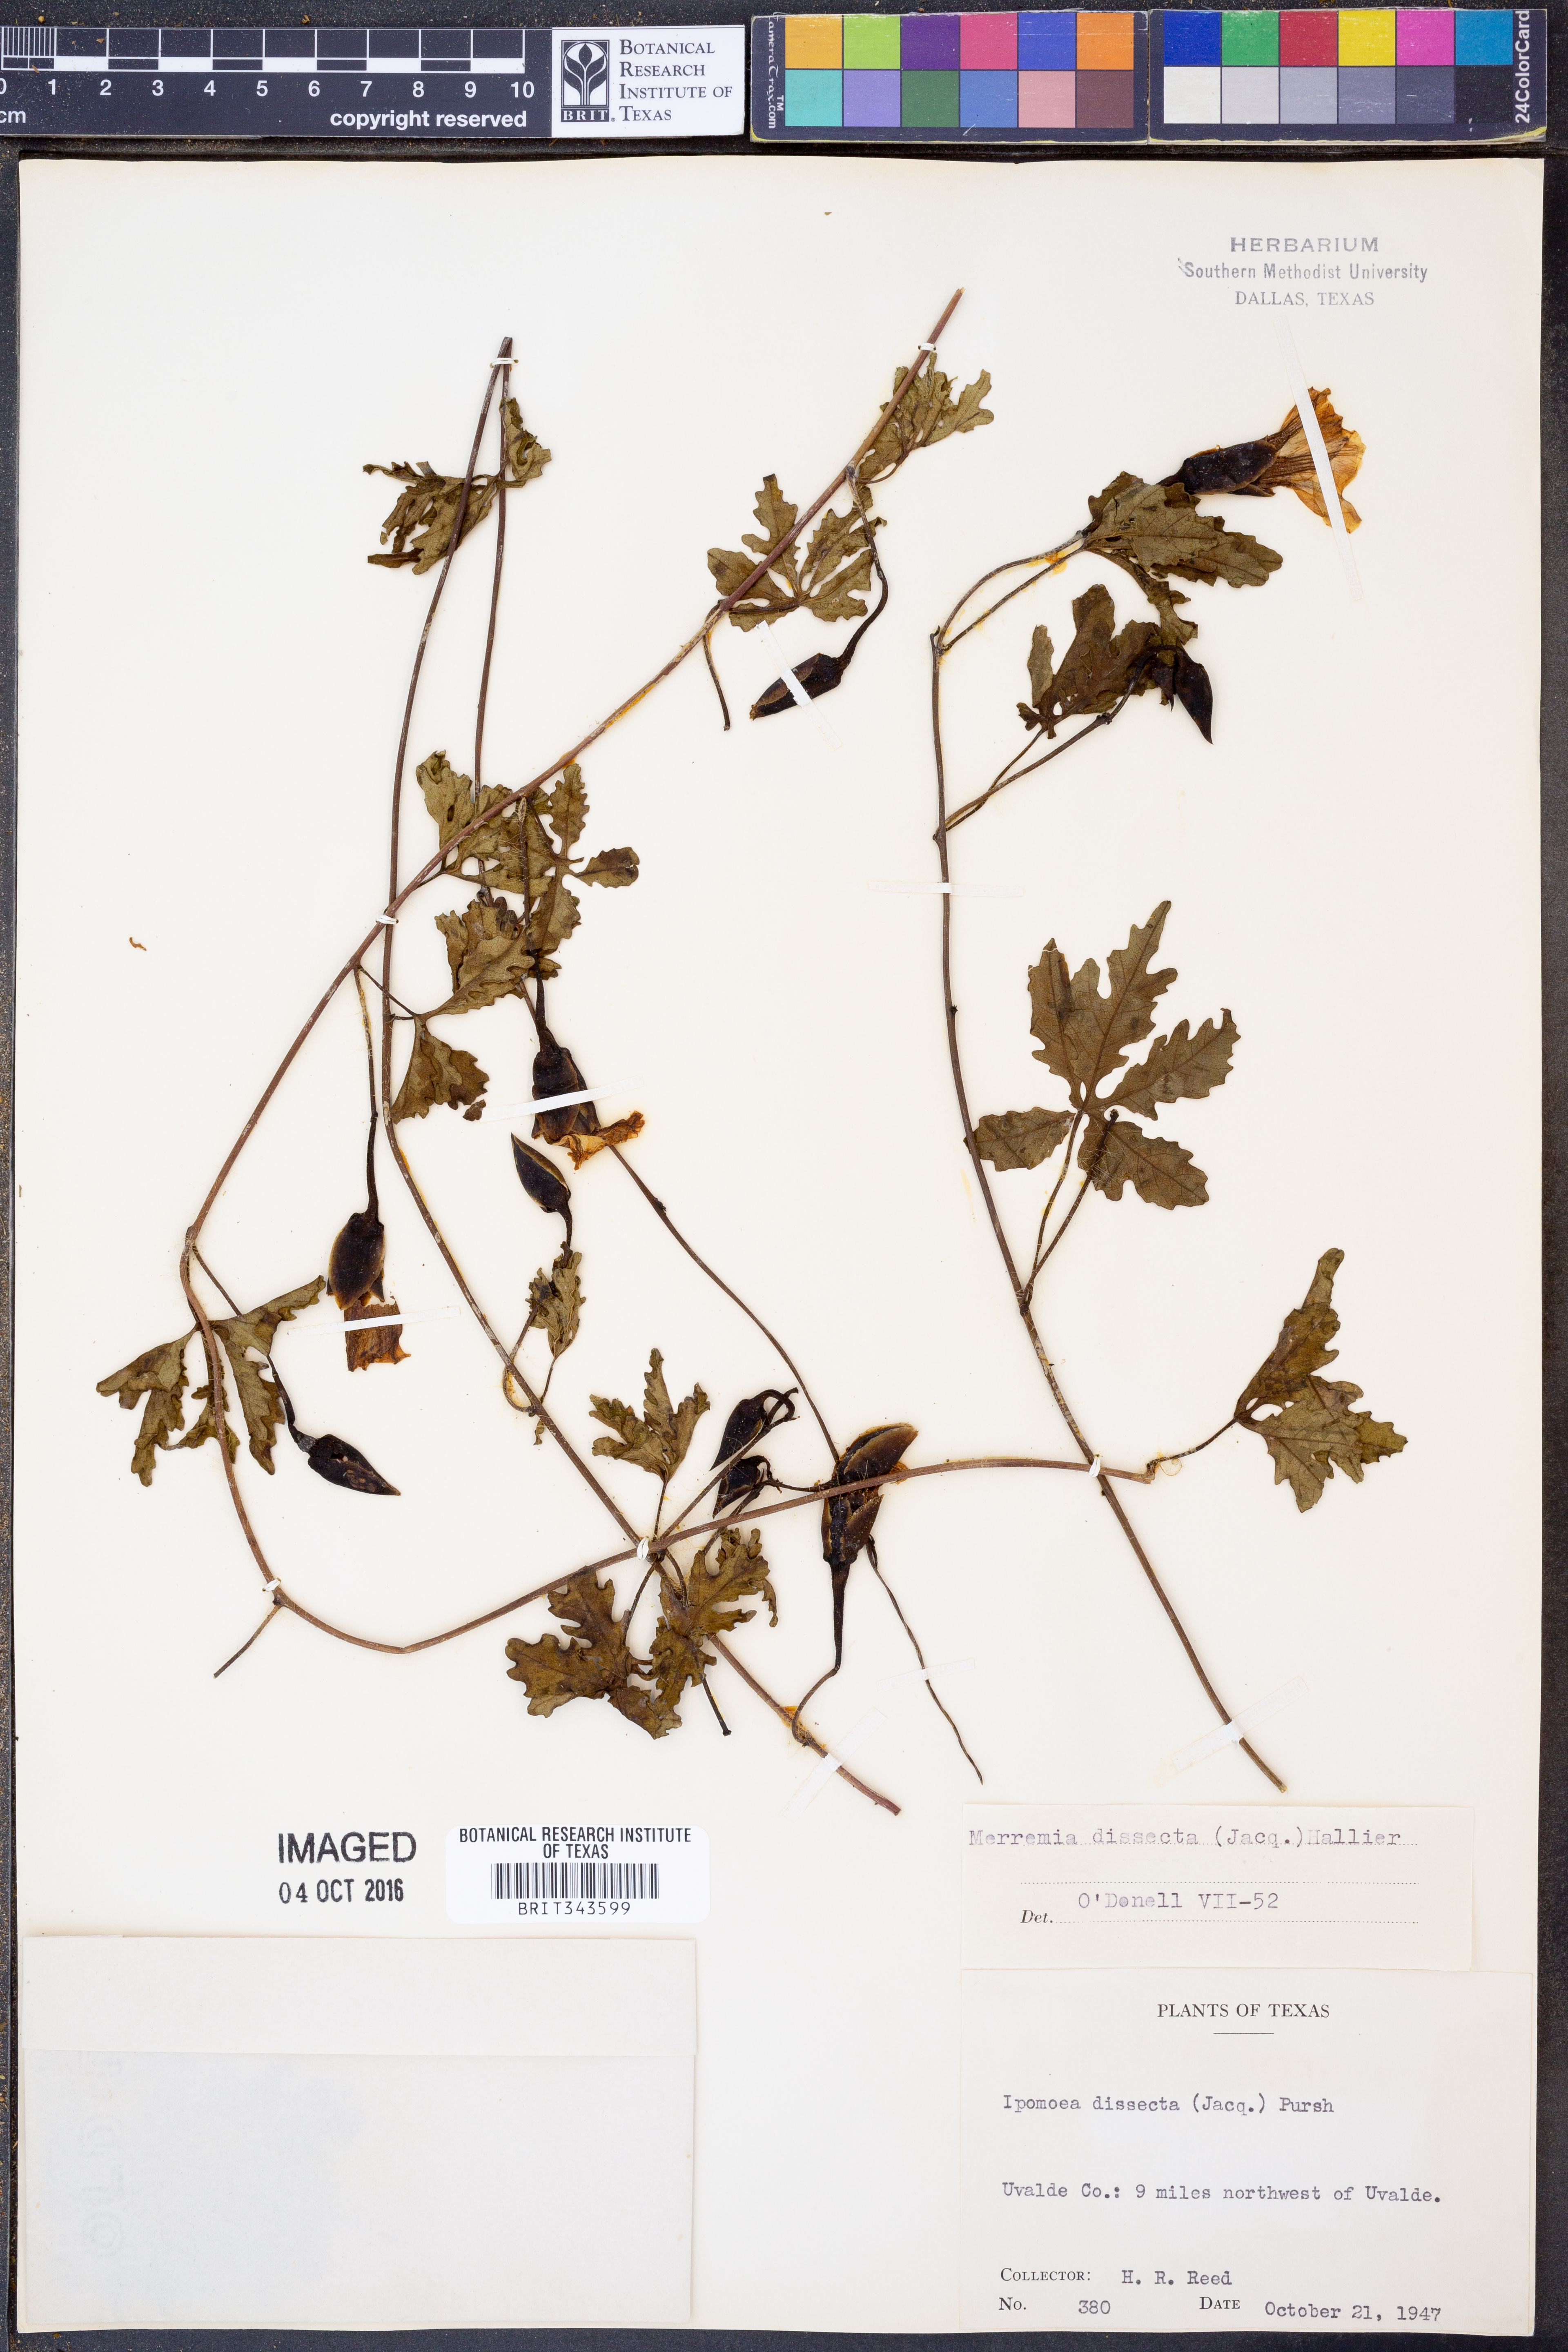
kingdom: Plantae
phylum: Tracheophyta
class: Magnoliopsida
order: Solanales
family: Convolvulaceae
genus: Distimake
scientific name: Distimake dissectus
